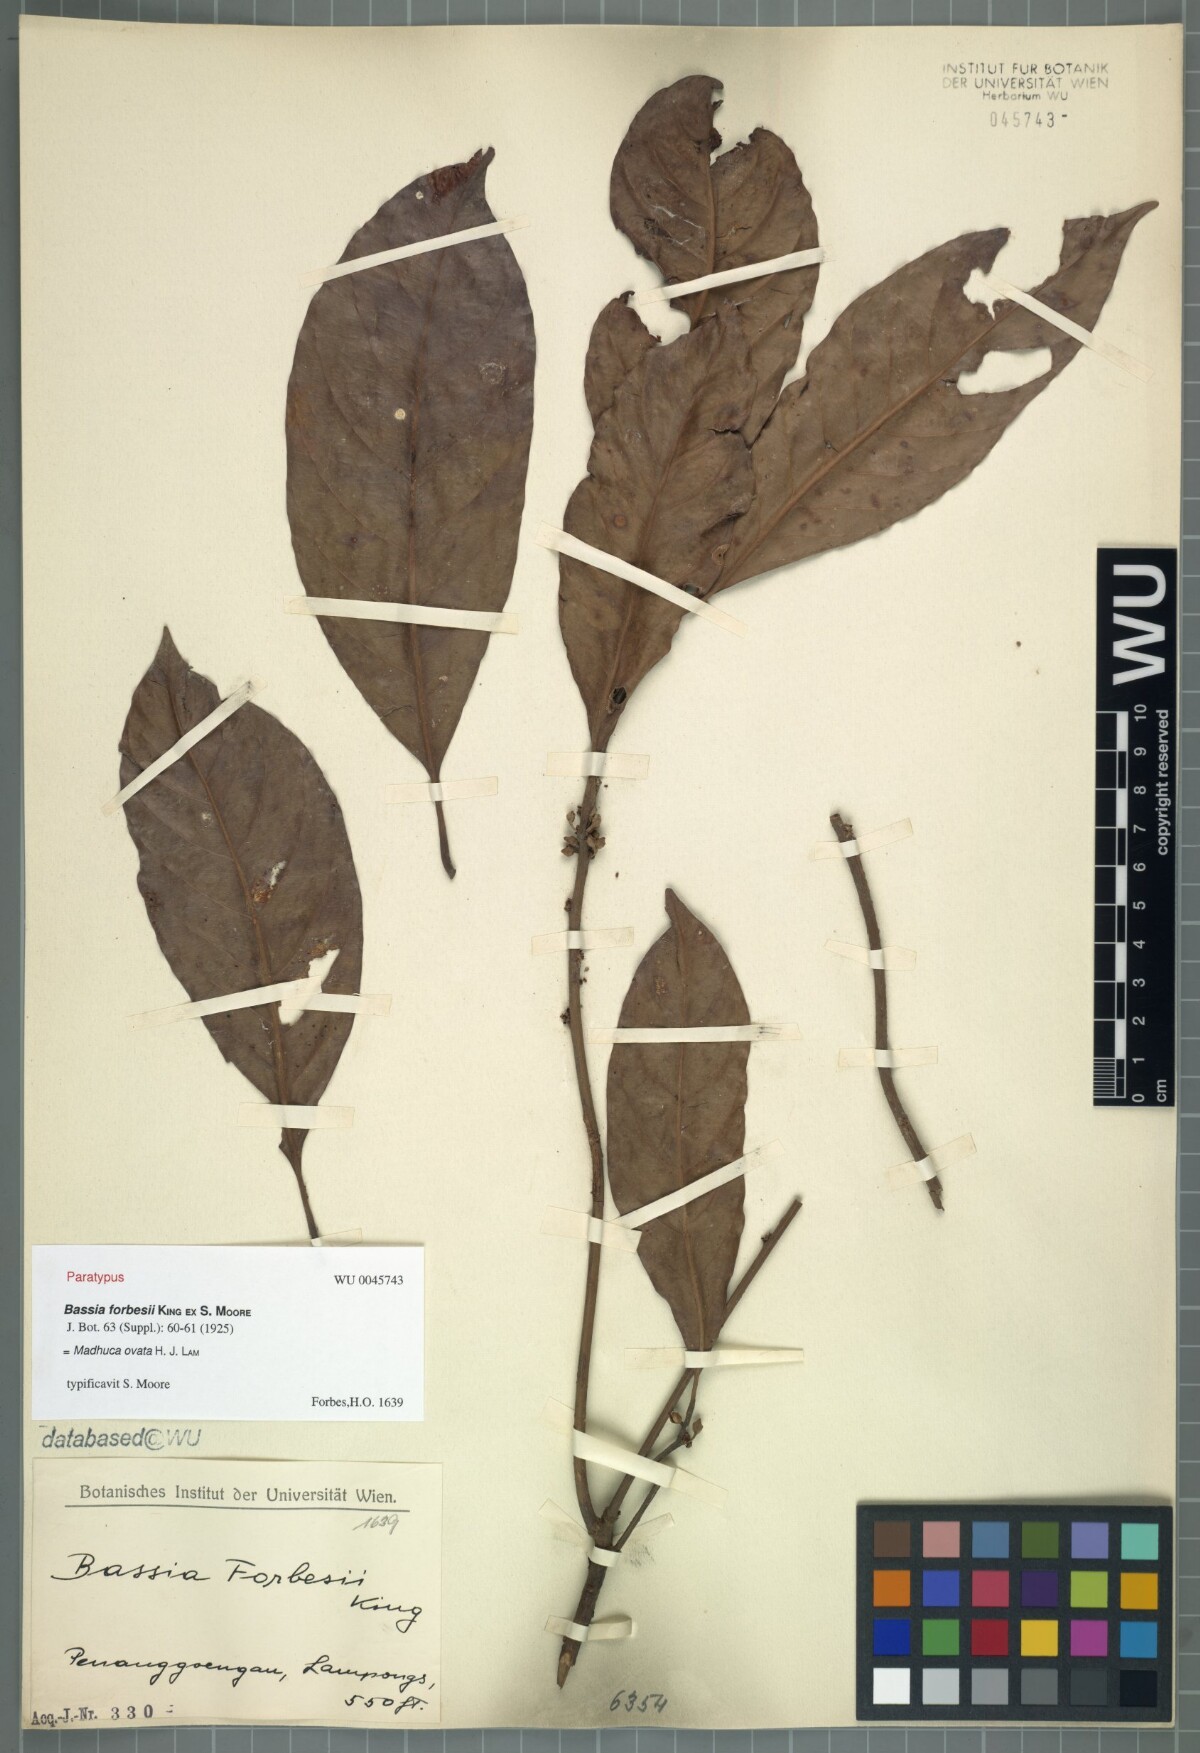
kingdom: Plantae
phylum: Tracheophyta
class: Magnoliopsida
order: Ericales
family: Sapotaceae
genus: Madhuca
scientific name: Madhuca ovata
